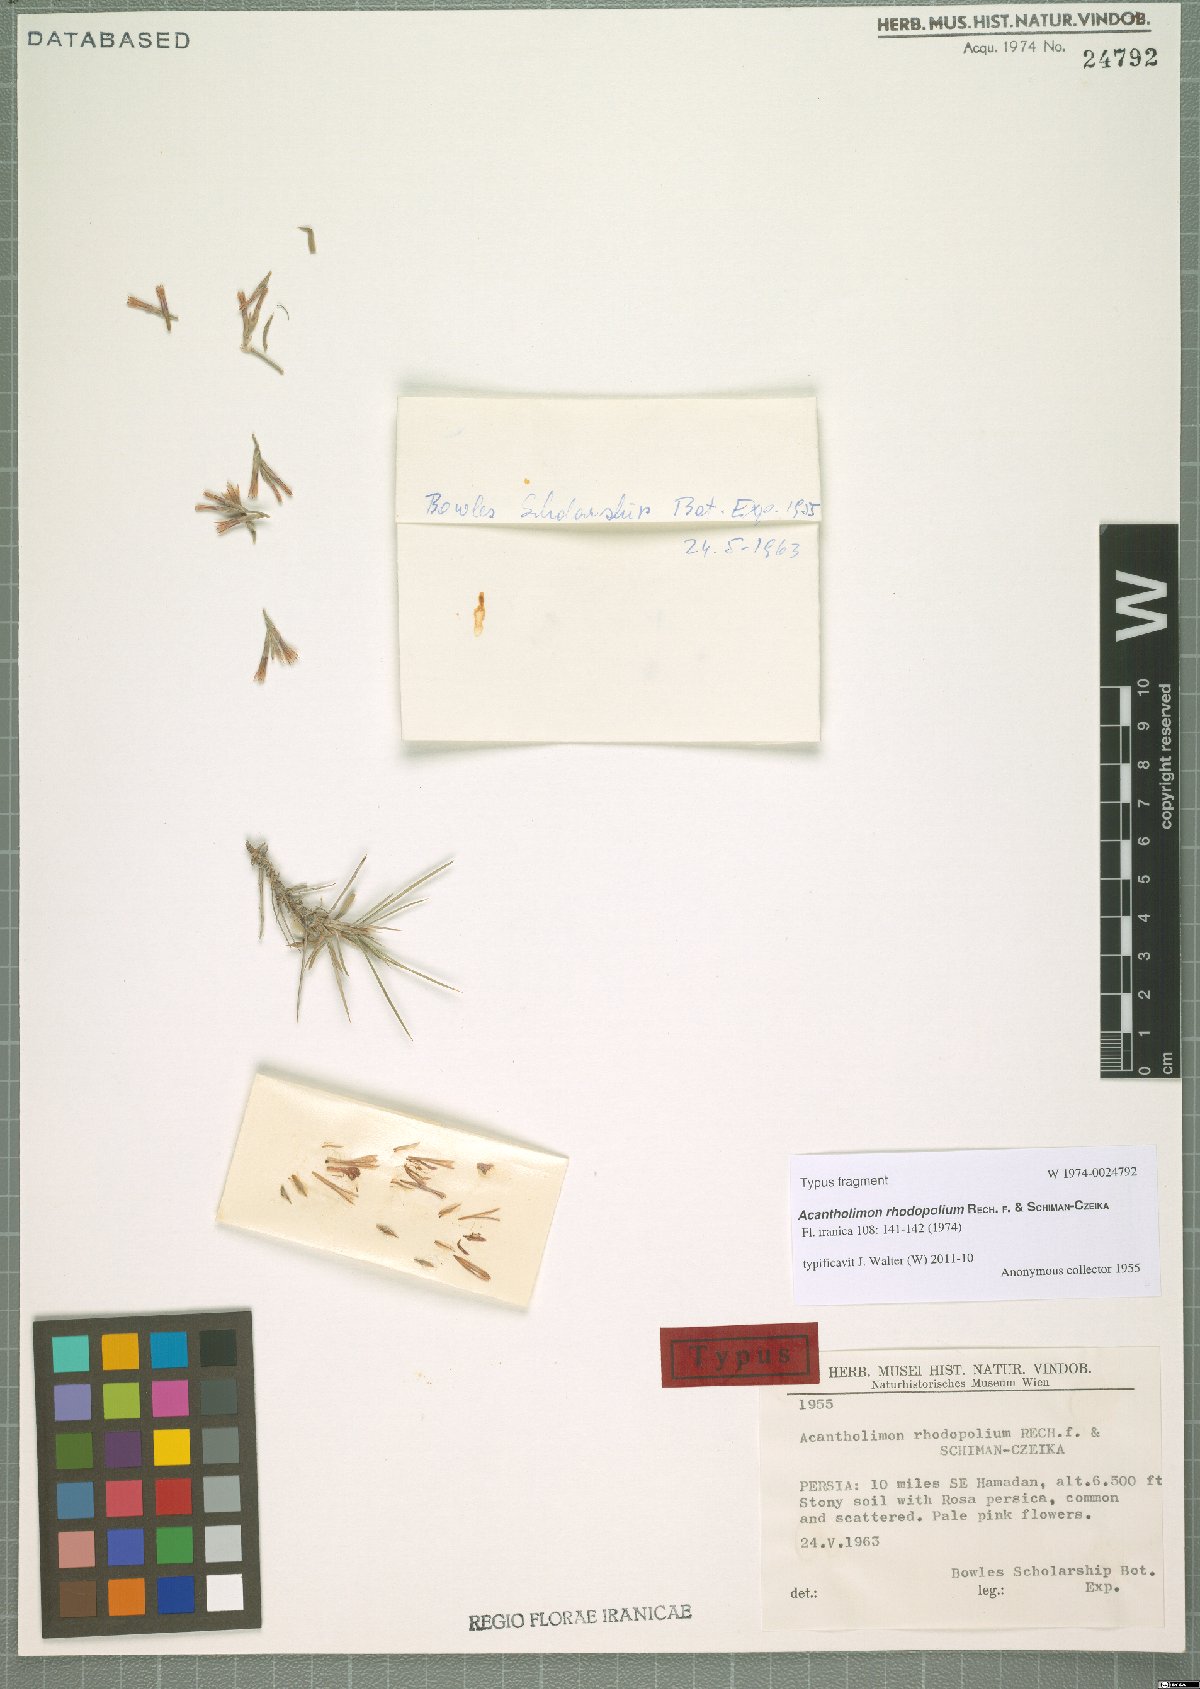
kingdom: Plantae
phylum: Tracheophyta
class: Magnoliopsida
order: Caryophyllales
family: Plumbaginaceae
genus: Acantholimon
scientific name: Acantholimon rhodopolium
